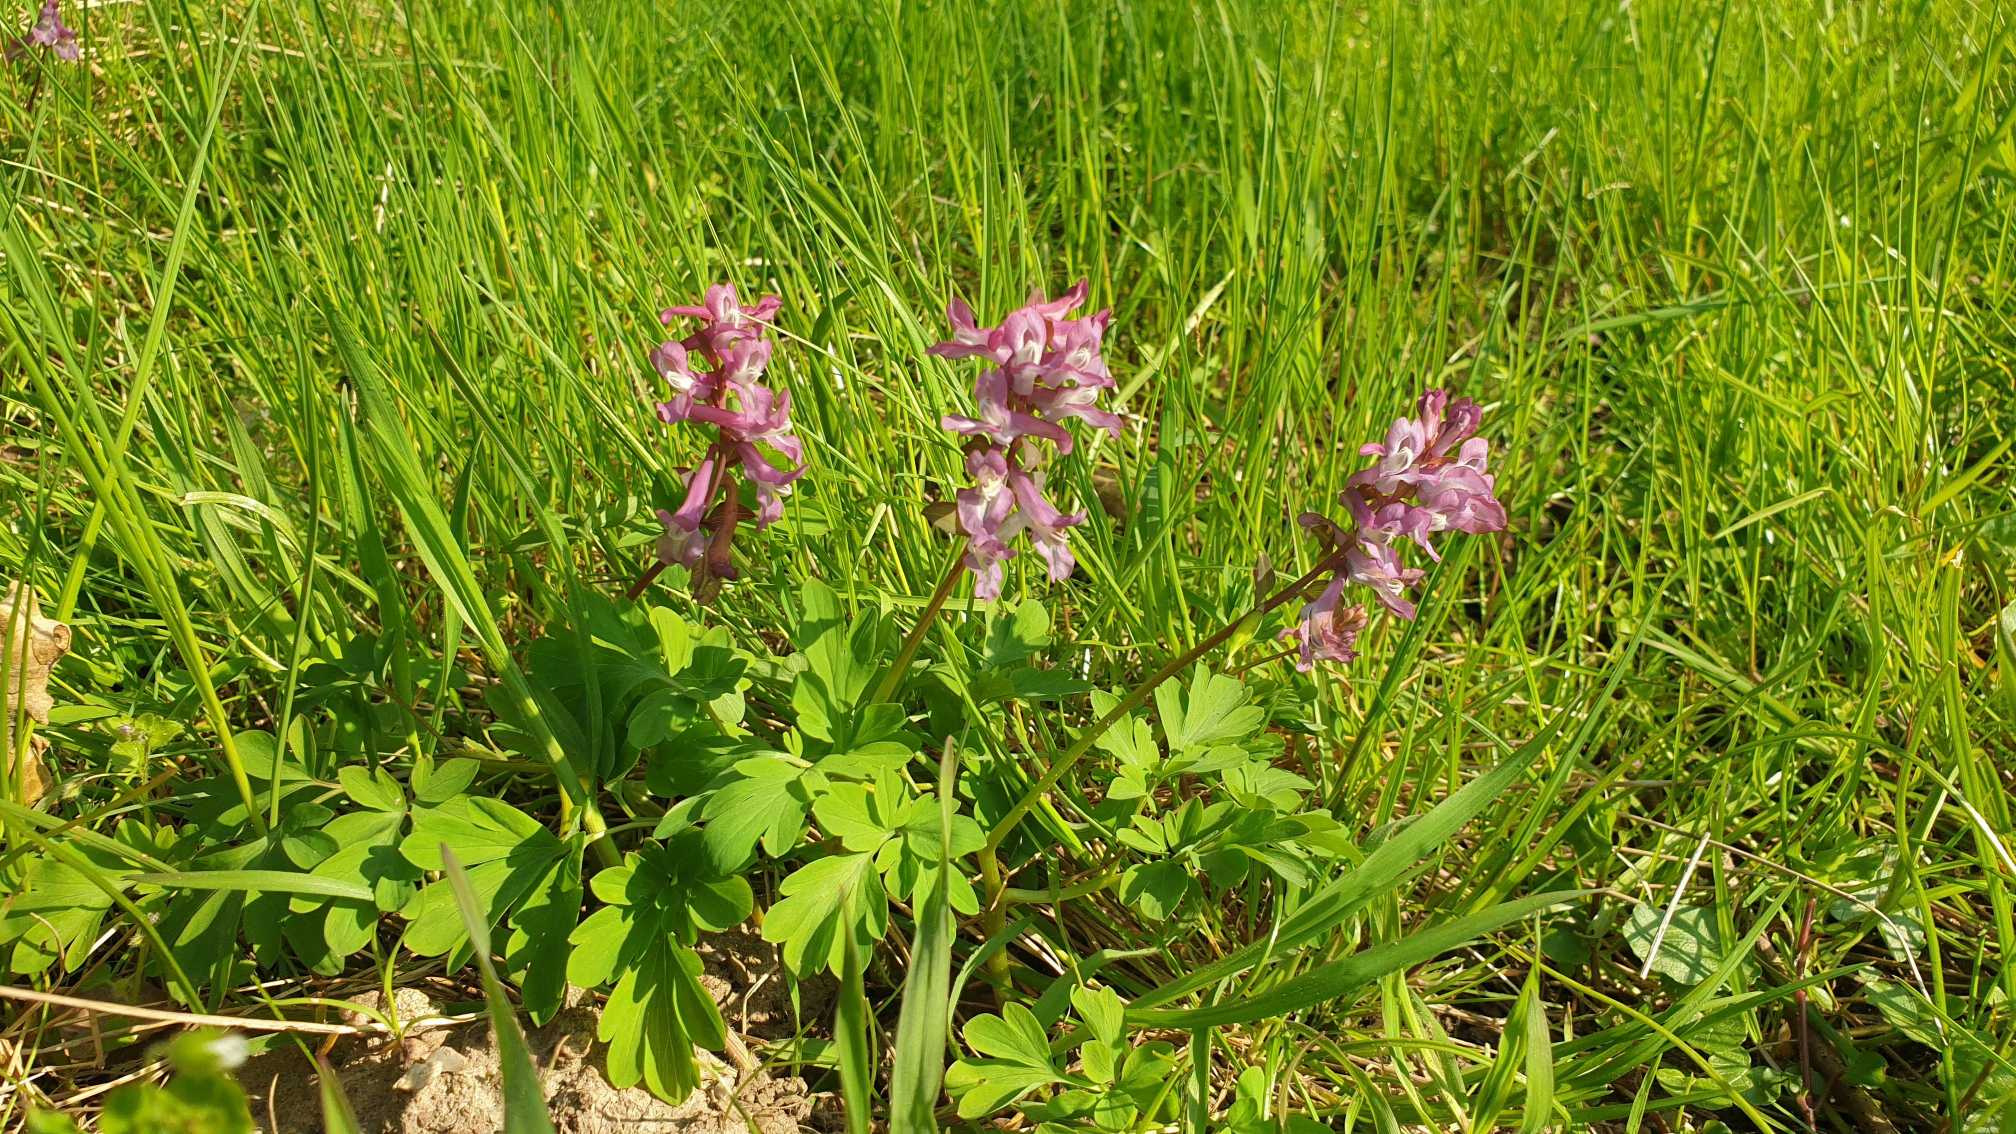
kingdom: Plantae
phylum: Tracheophyta
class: Magnoliopsida
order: Ranunculales
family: Papaveraceae
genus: Corydalis
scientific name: Corydalis cava
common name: Hulrodet lærkespore
